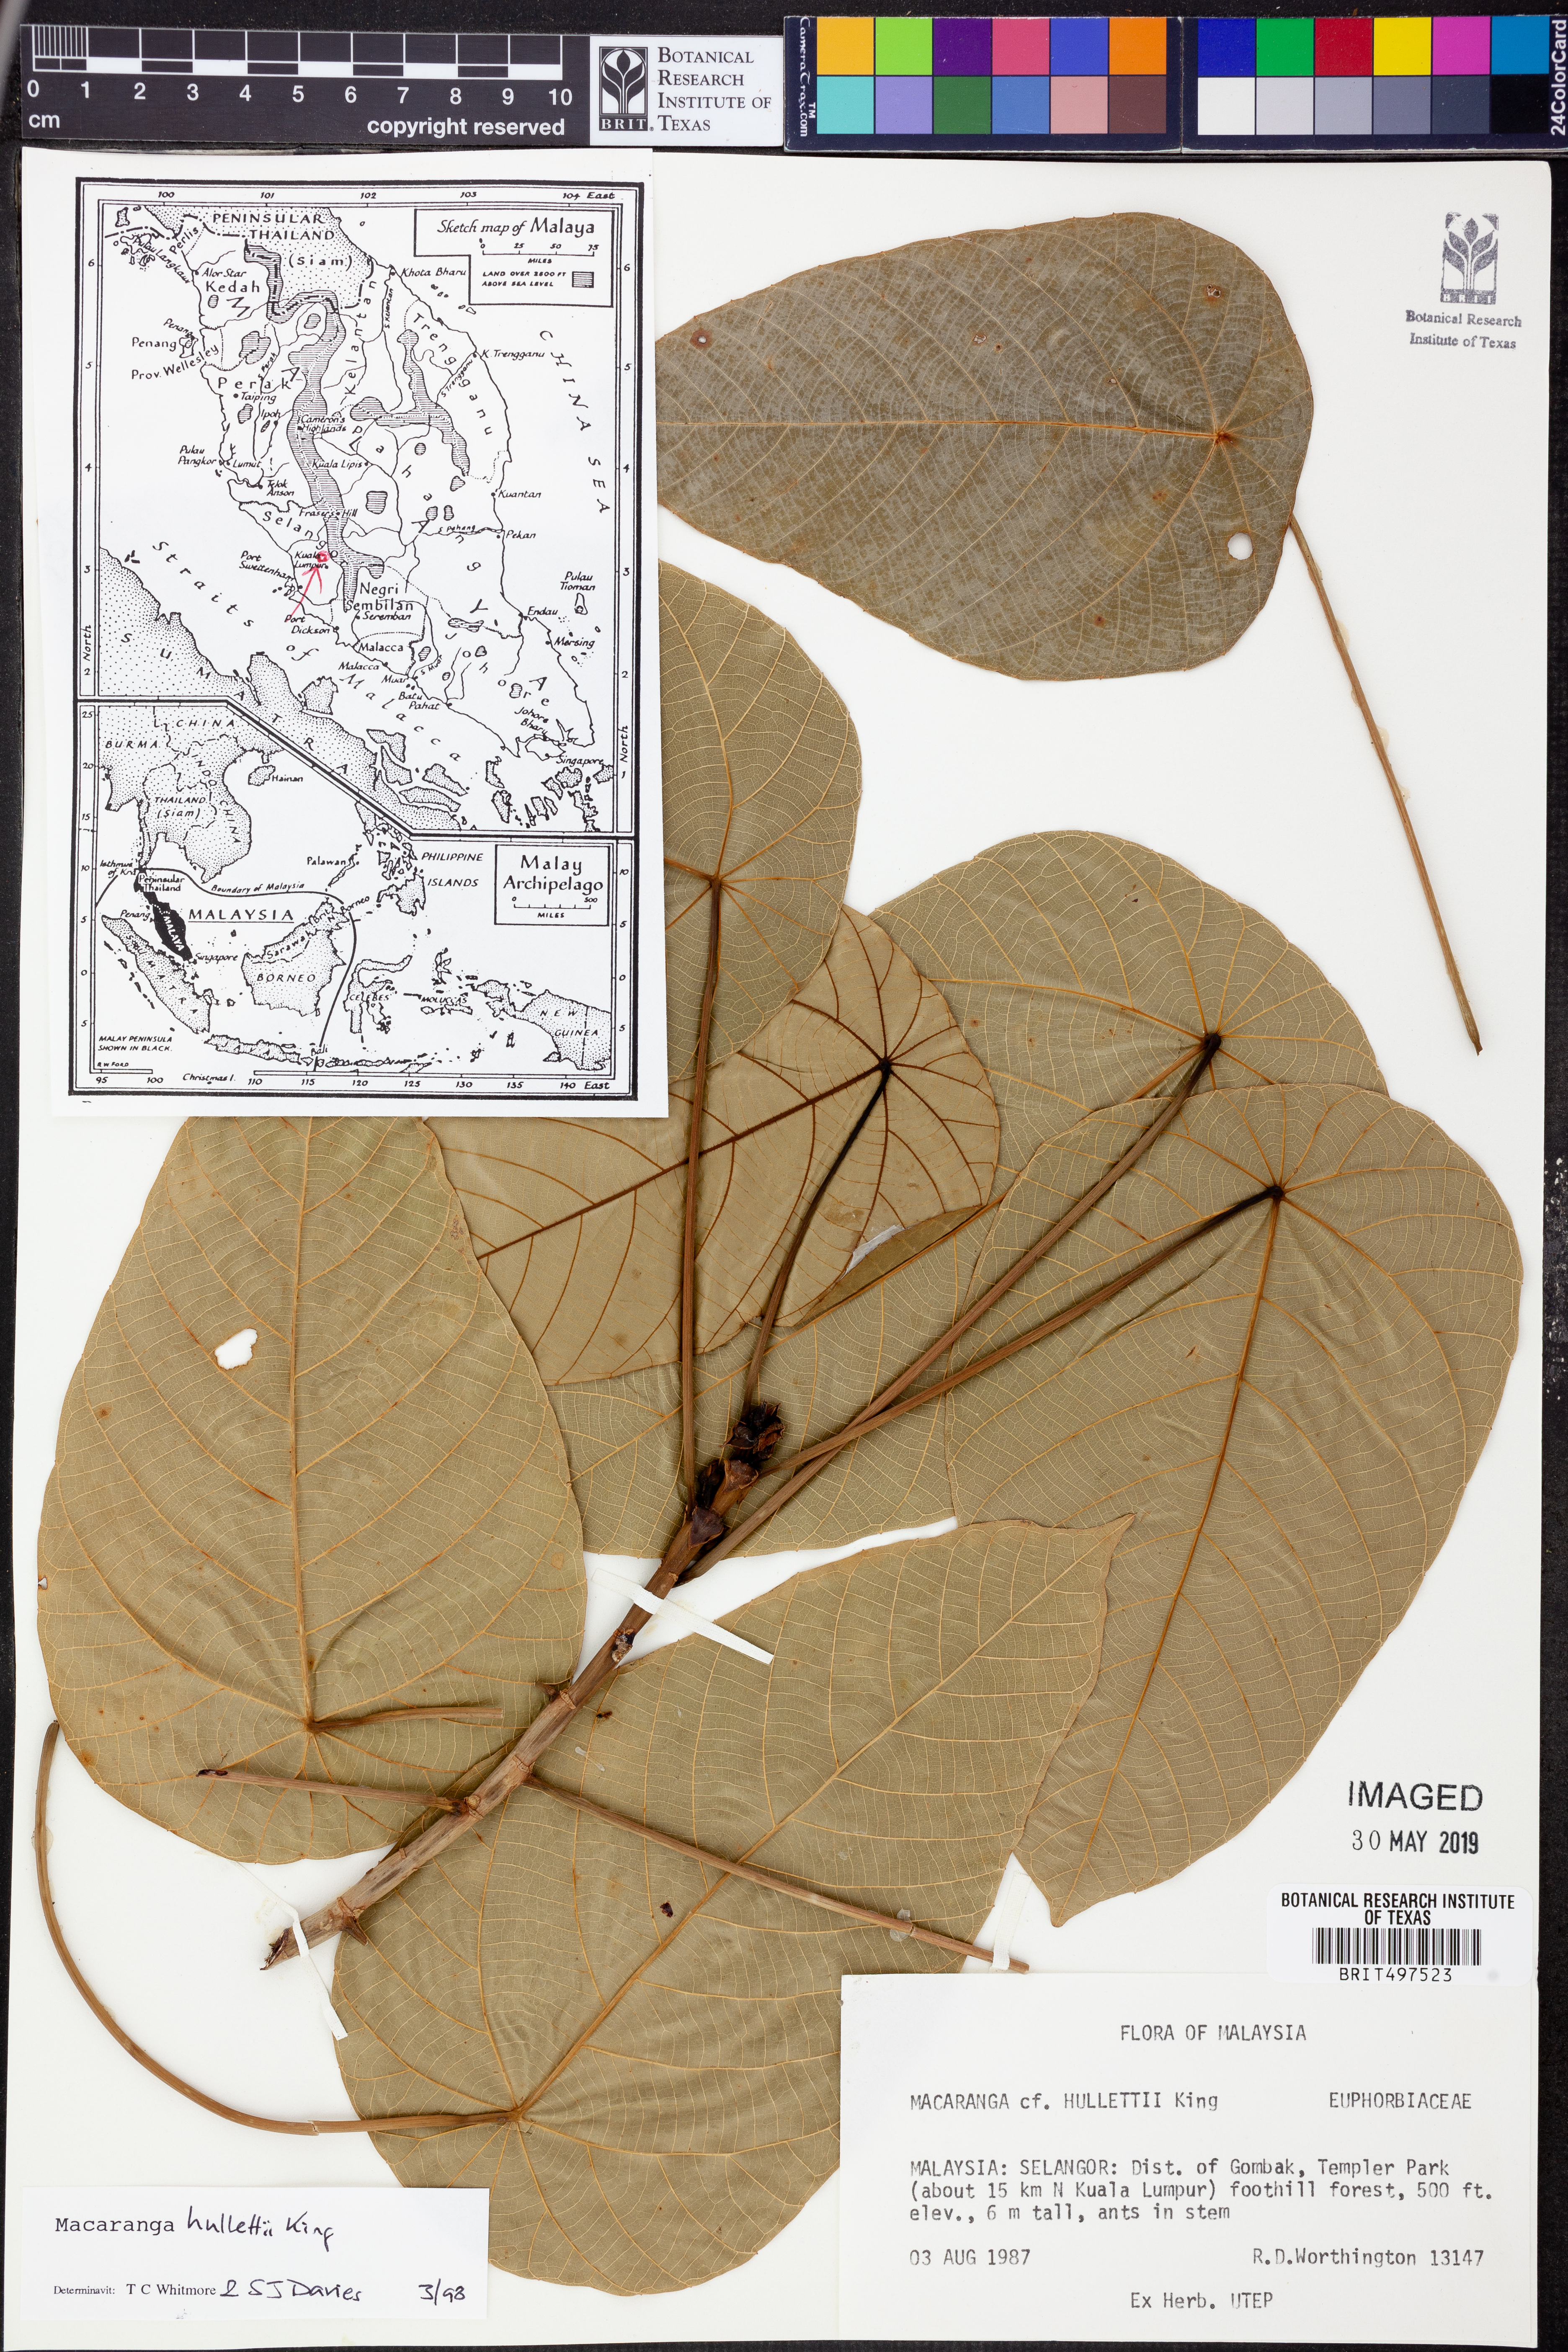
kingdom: Plantae
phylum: Tracheophyta
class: Magnoliopsida
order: Malpighiales
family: Euphorbiaceae
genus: Macaranga
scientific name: Macaranga hullettii
